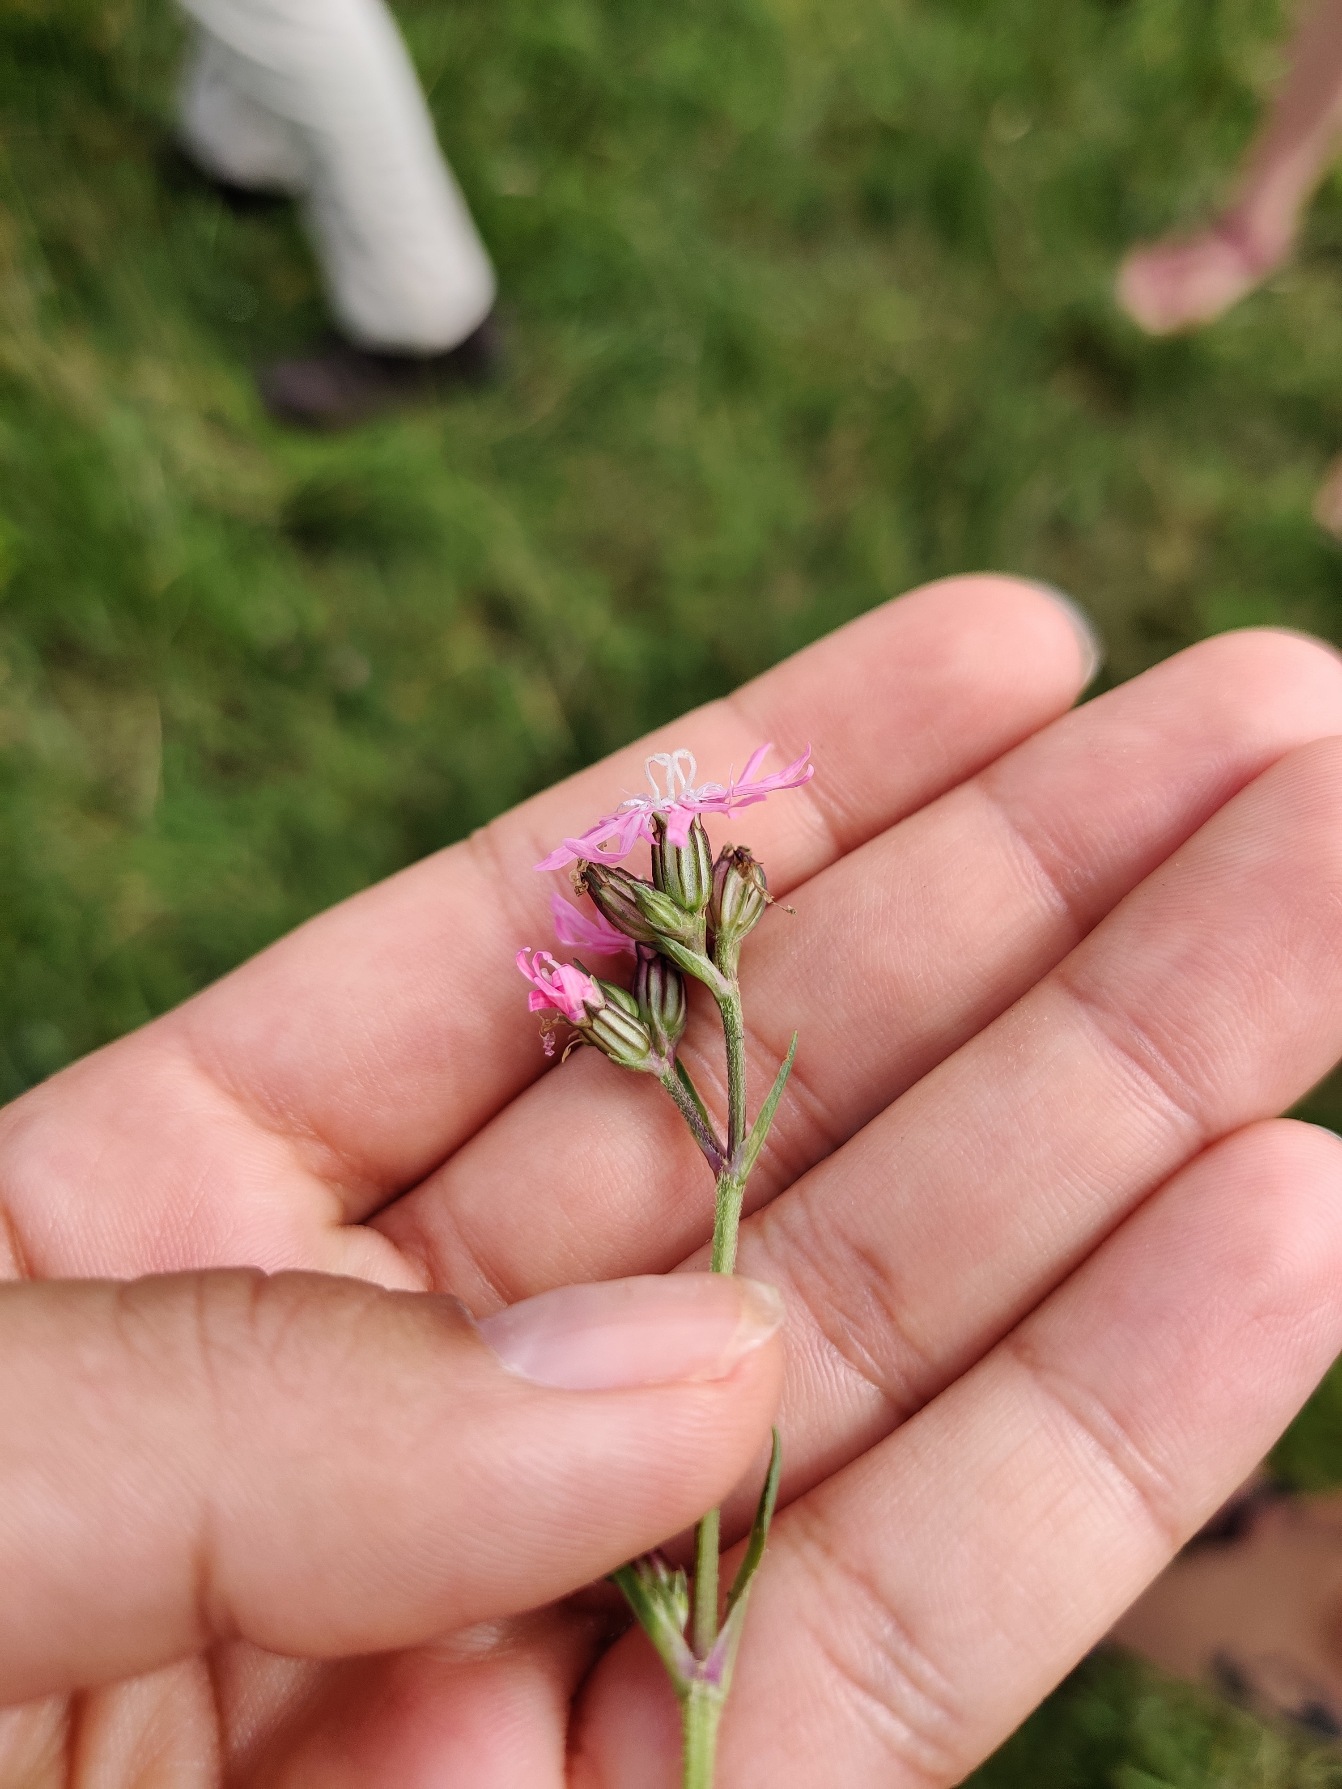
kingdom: Plantae
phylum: Tracheophyta
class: Magnoliopsida
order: Caryophyllales
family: Caryophyllaceae
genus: Silene
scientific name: Silene flos-cuculi
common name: Trævlekrone
